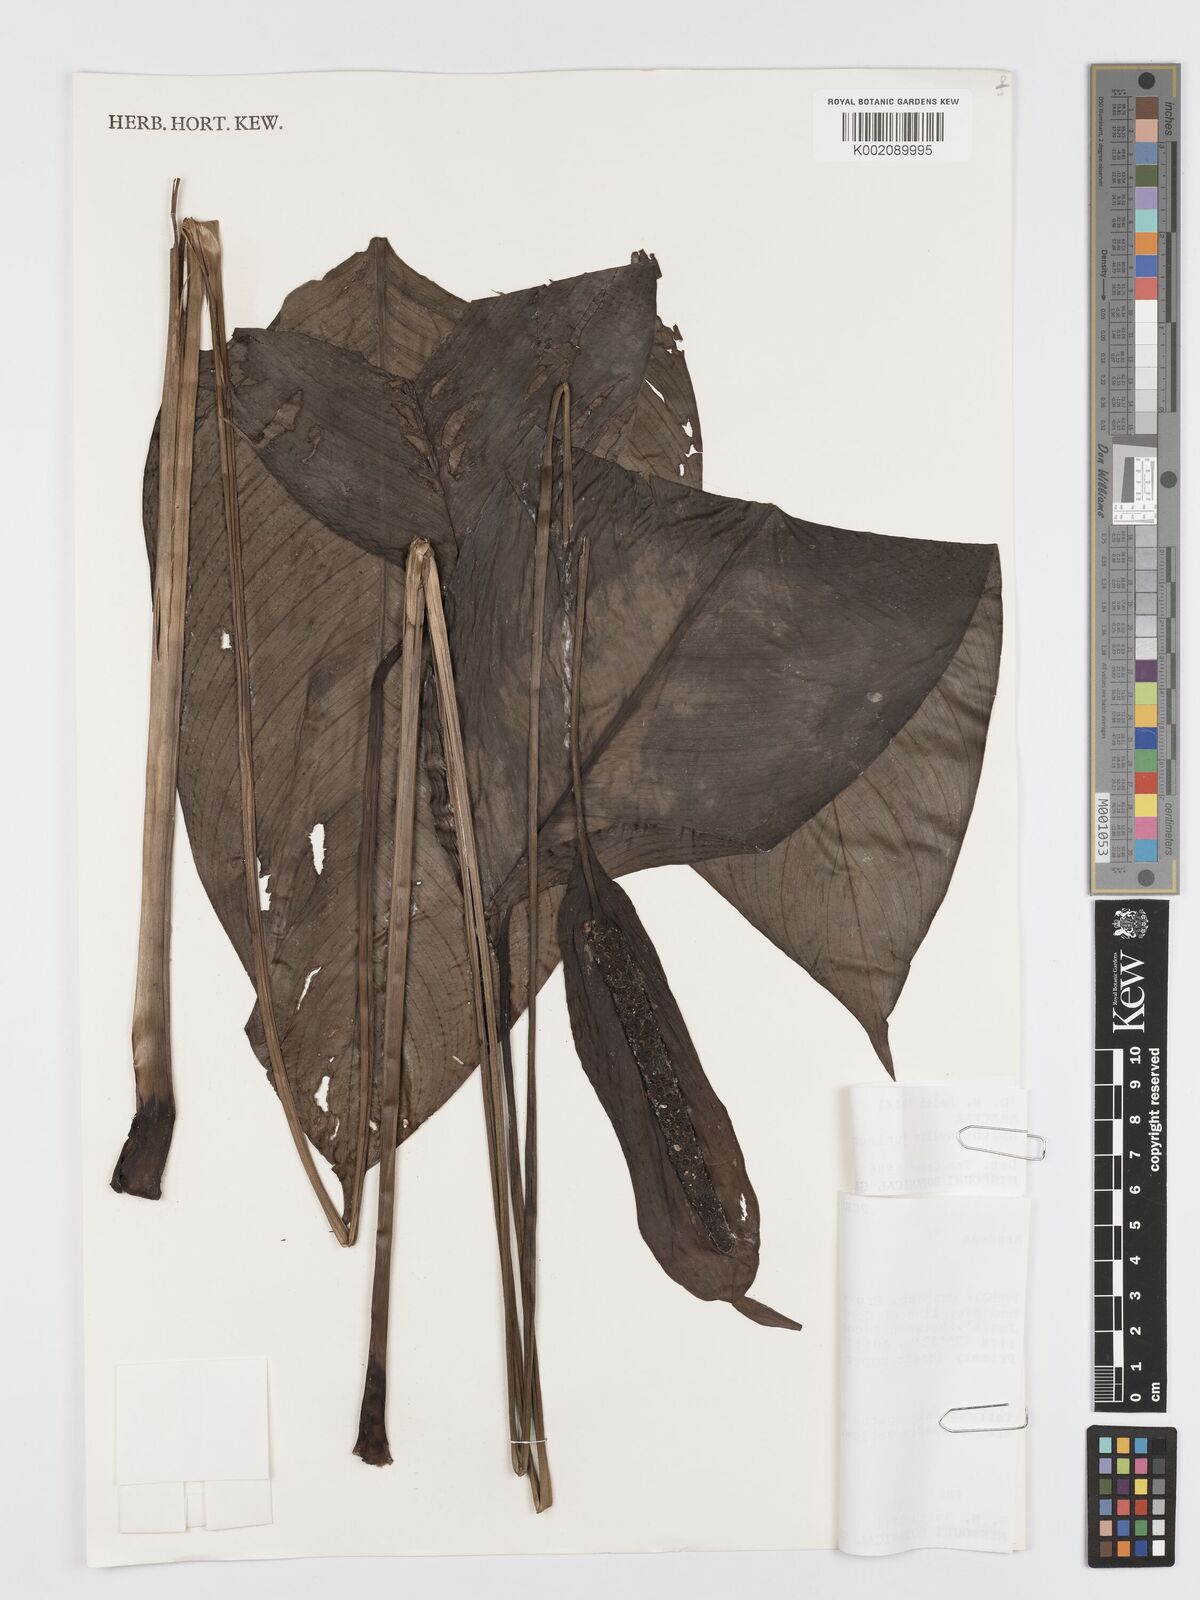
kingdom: Plantae
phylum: Tracheophyta
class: Liliopsida
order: Alismatales
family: Araceae
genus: Spathiphyllum
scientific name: Spathiphyllum juninense
